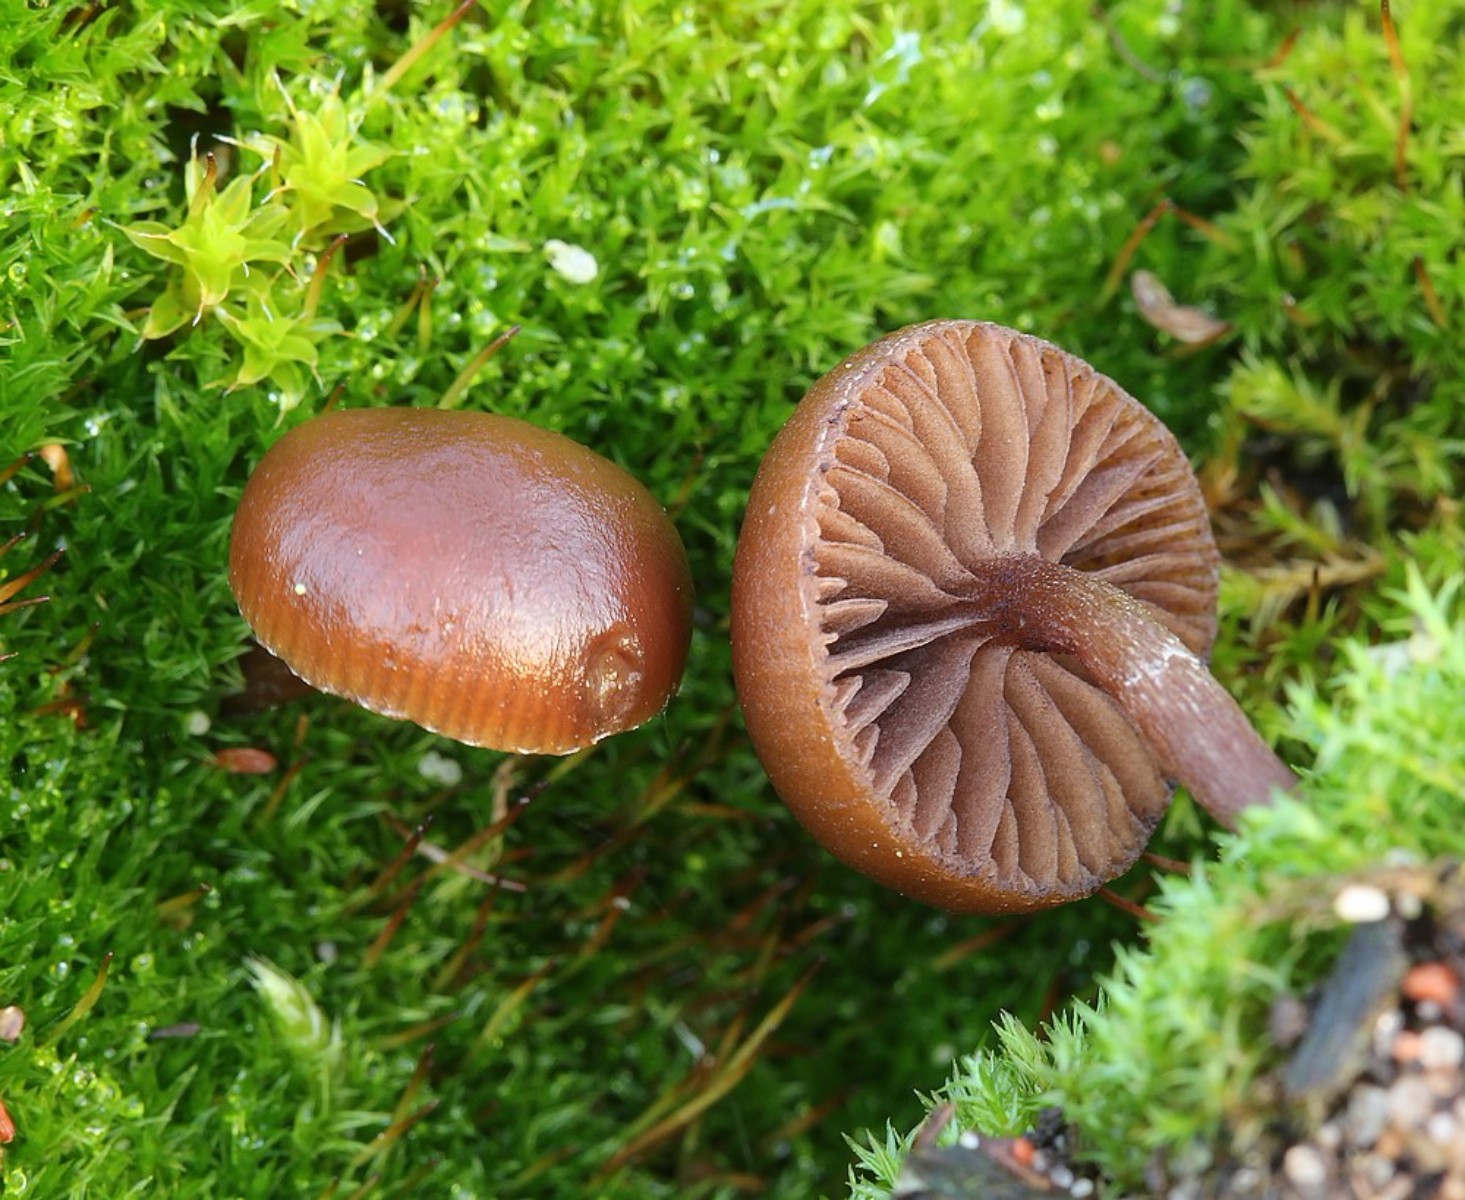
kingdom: Fungi
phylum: Basidiomycota
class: Agaricomycetes
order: Agaricales
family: Strophariaceae
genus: Deconica
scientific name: Deconica montana
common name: rødbrun stråhat
